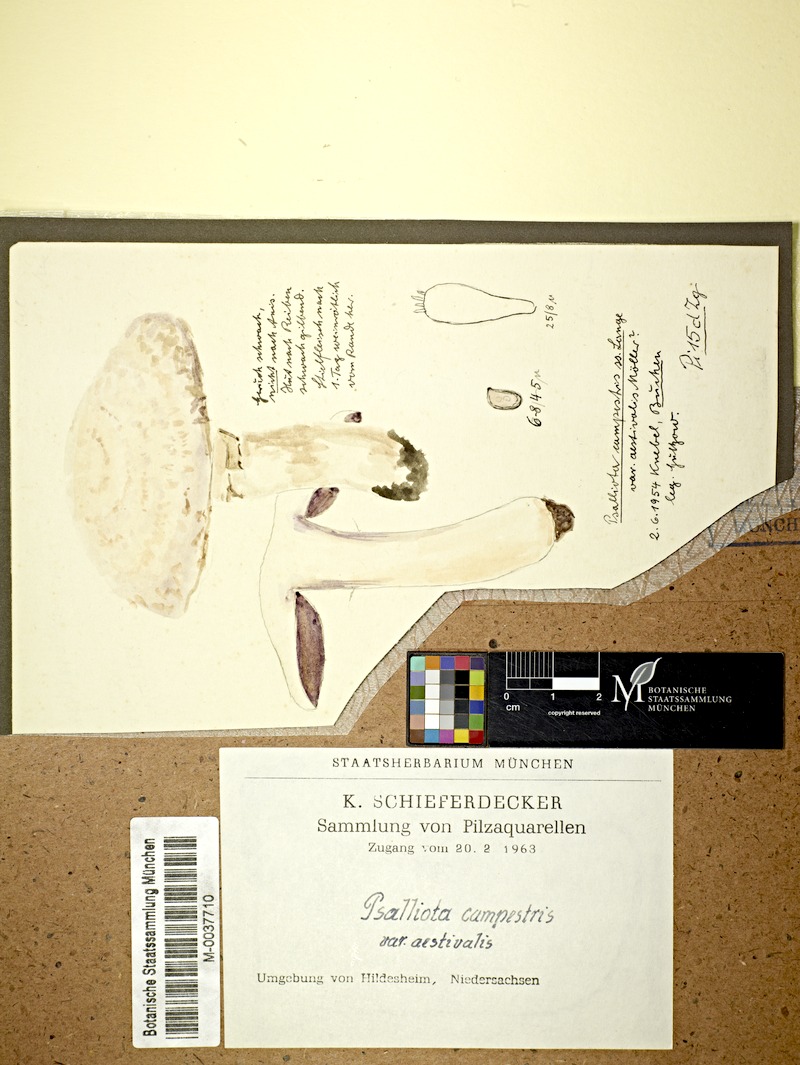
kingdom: Fungi
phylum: Basidiomycota
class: Agaricomycetes
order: Agaricales
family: Agaricaceae
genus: Agaricus
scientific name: Agaricus altipes
